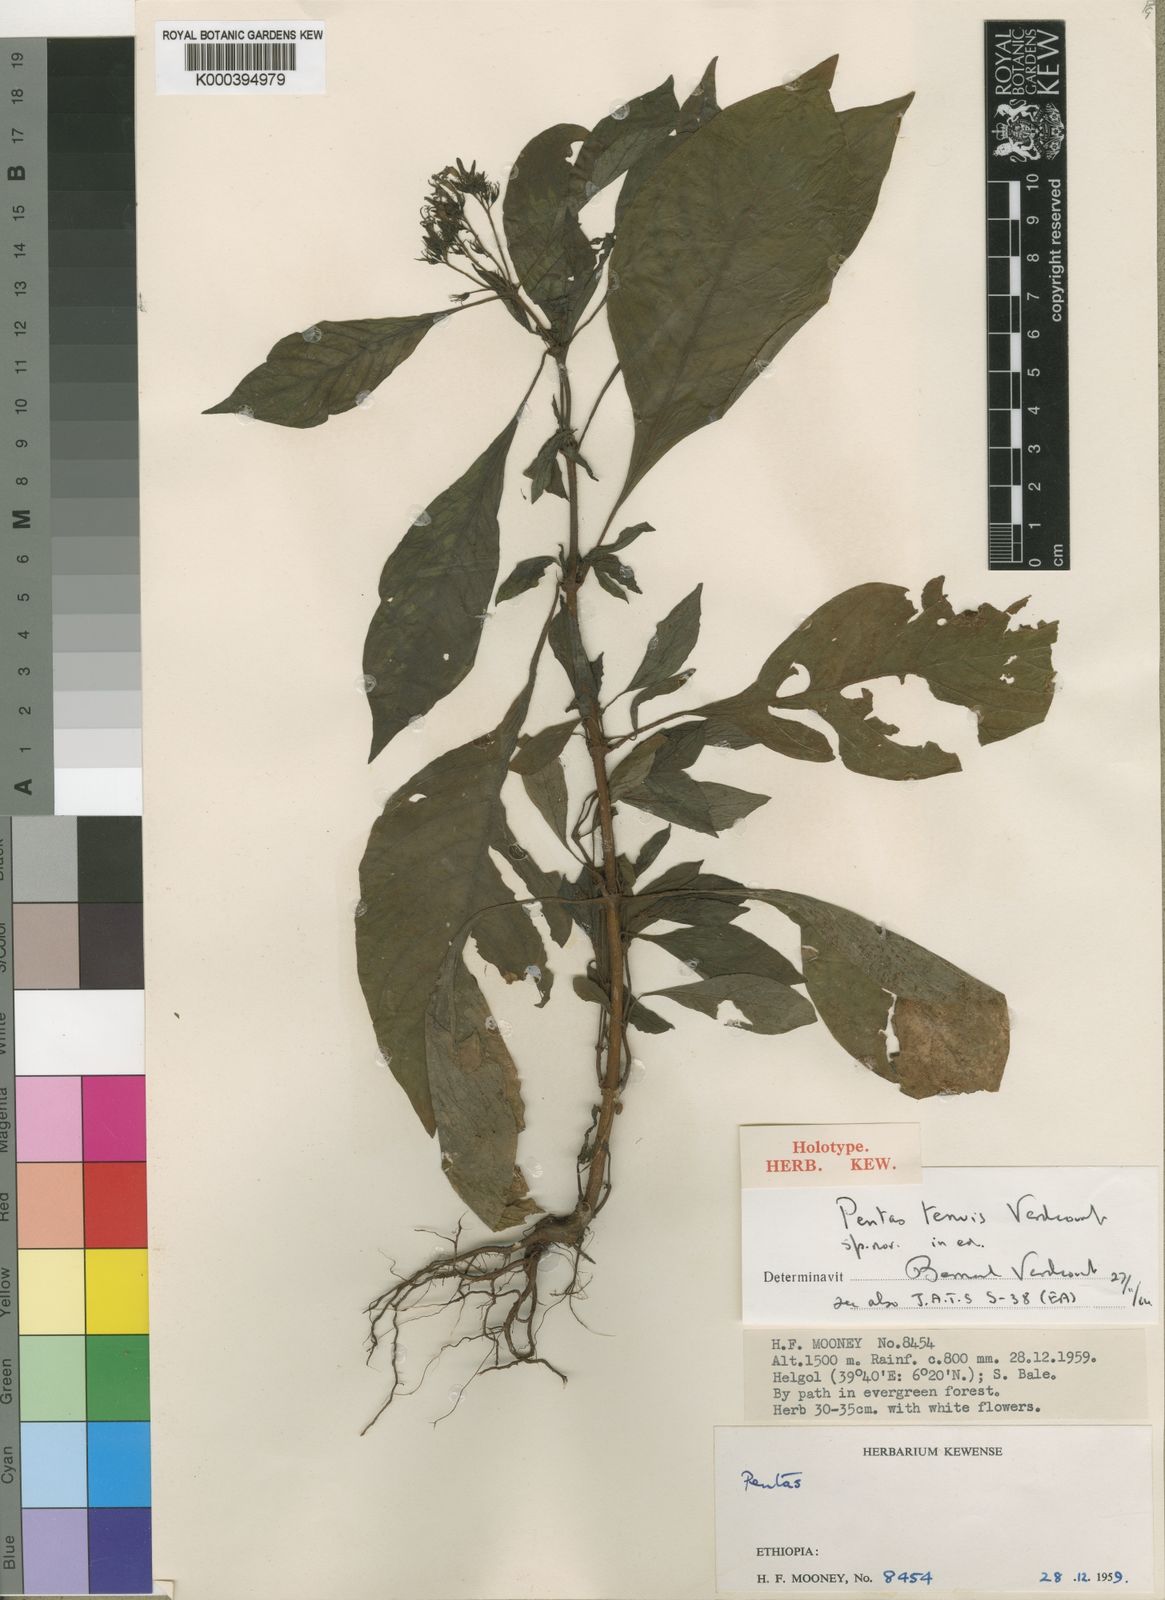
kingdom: Plantae
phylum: Tracheophyta
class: Magnoliopsida
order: Gentianales
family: Rubiaceae
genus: Phyllopentas
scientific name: Phyllopentas
